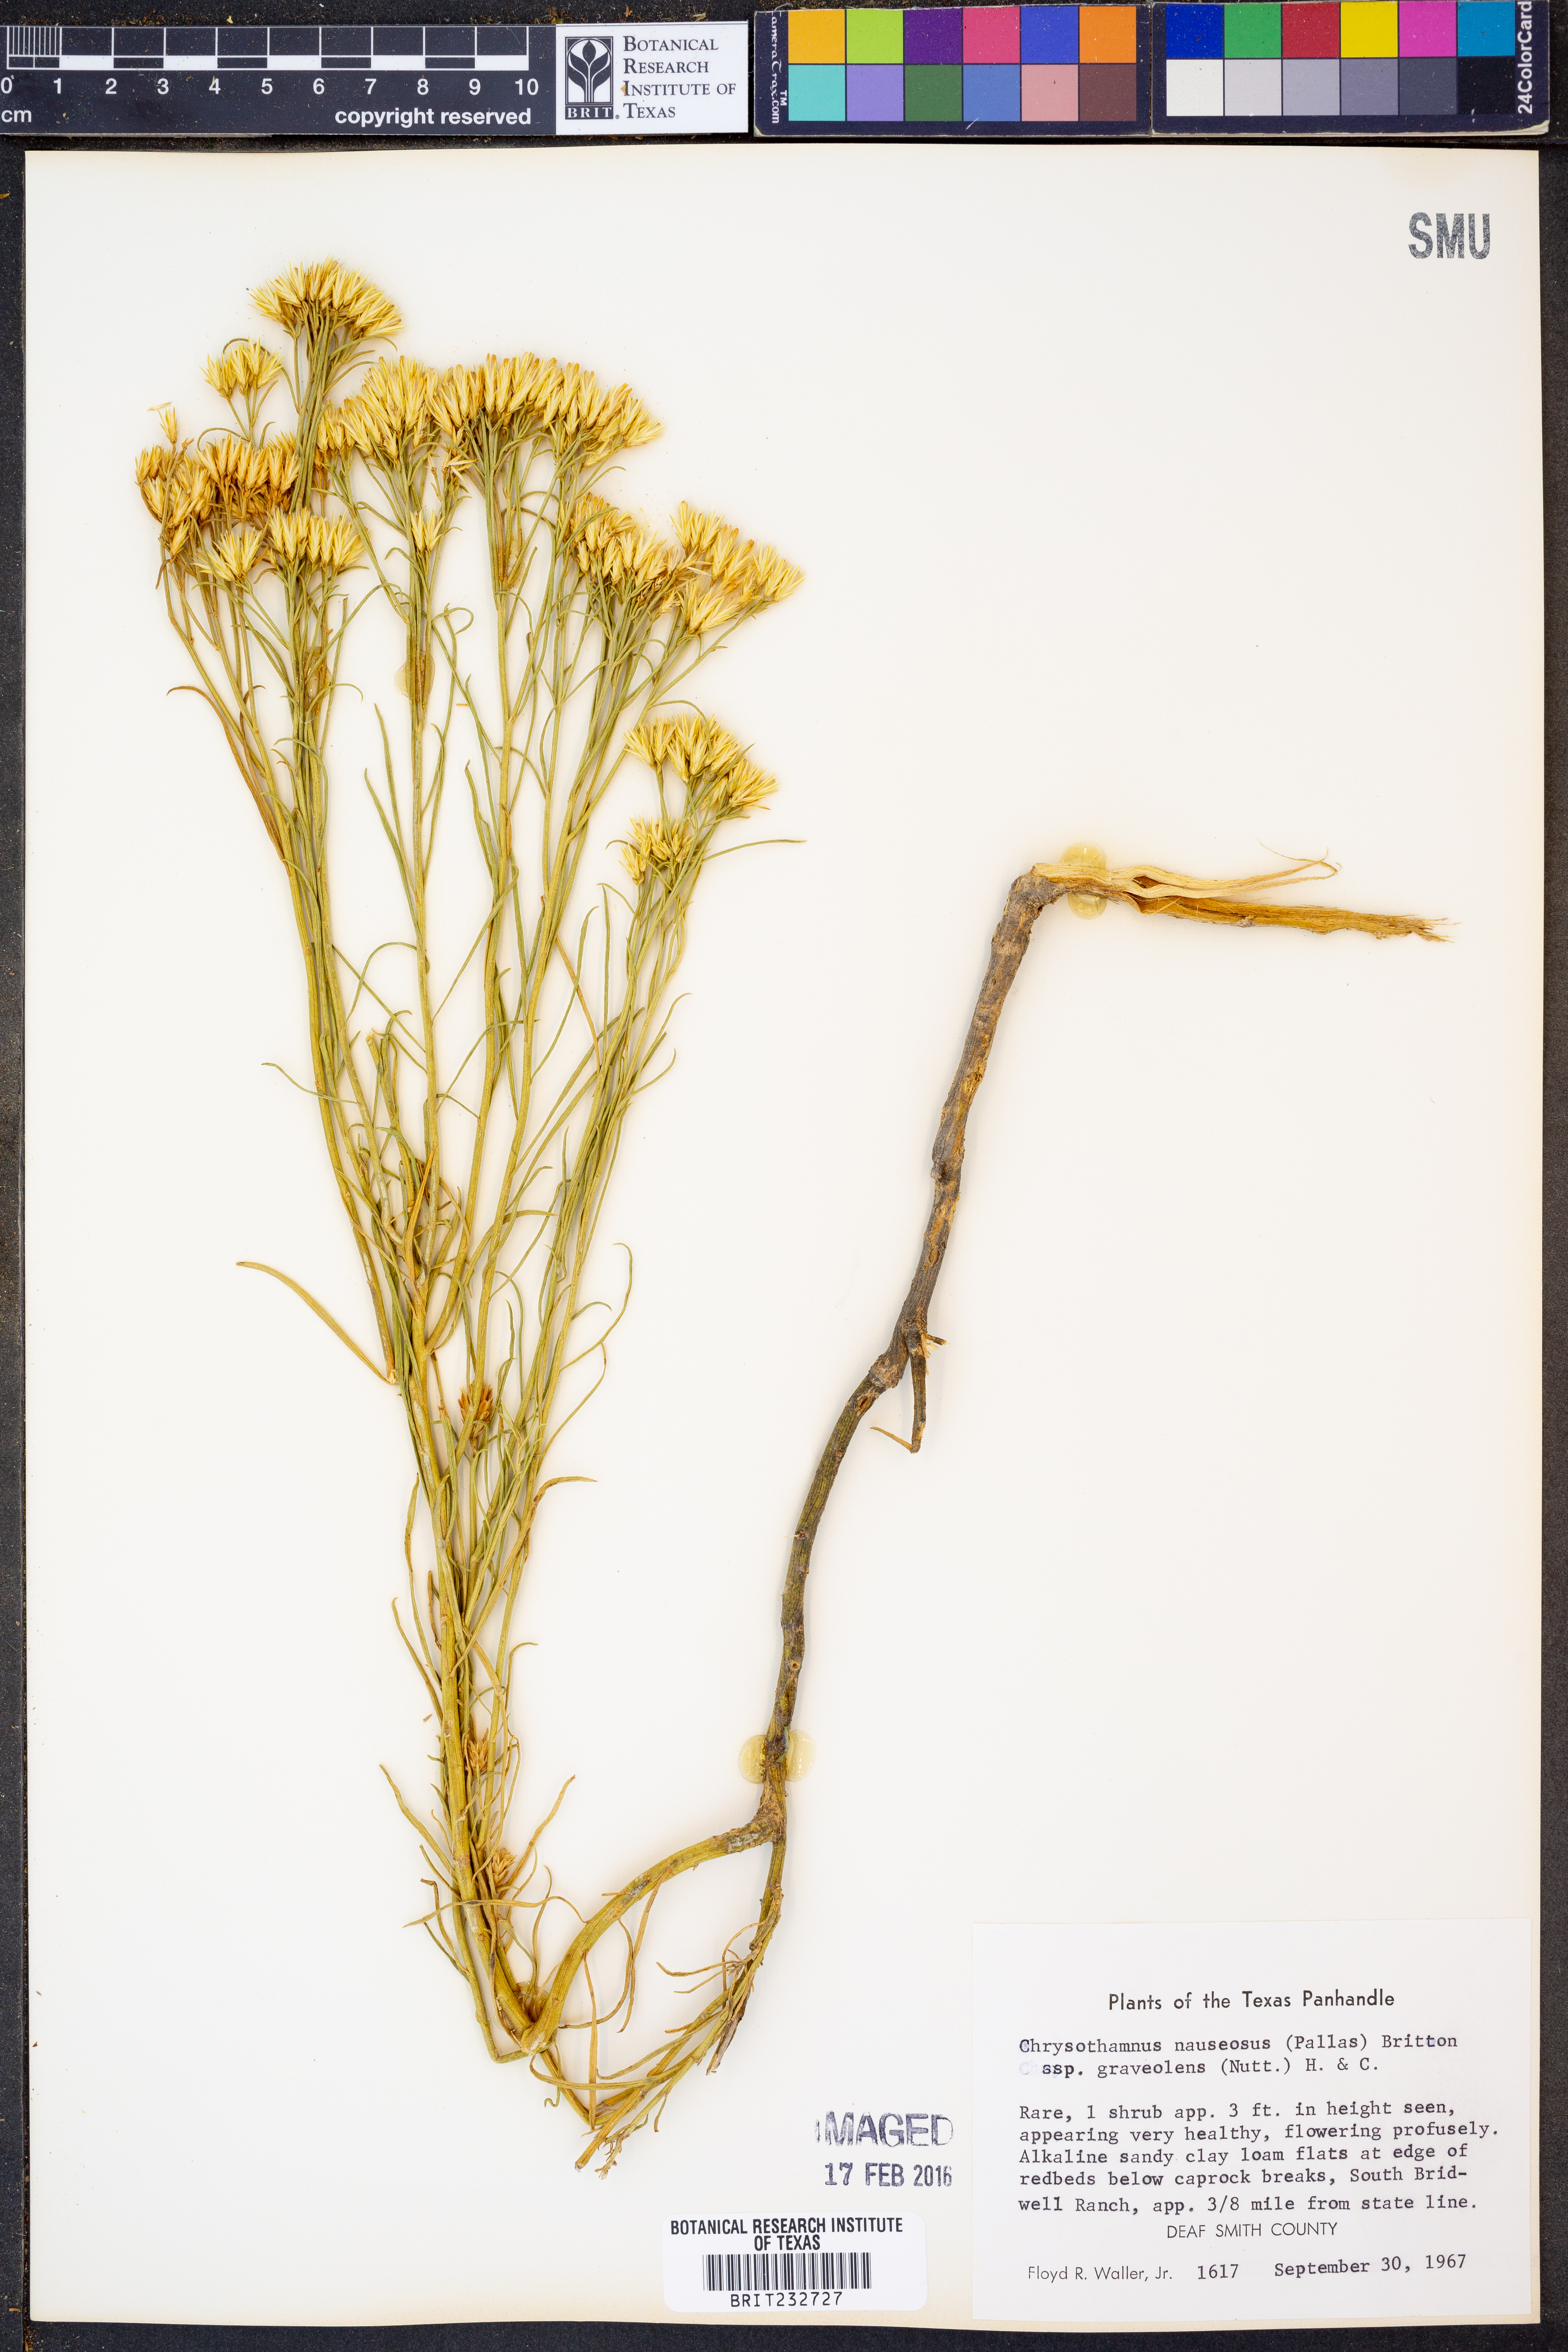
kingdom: Plantae
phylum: Tracheophyta
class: Magnoliopsida
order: Asterales
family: Asteraceae
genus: Ericameria
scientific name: Ericameria nauseosa
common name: Rubber rabbitbrush
